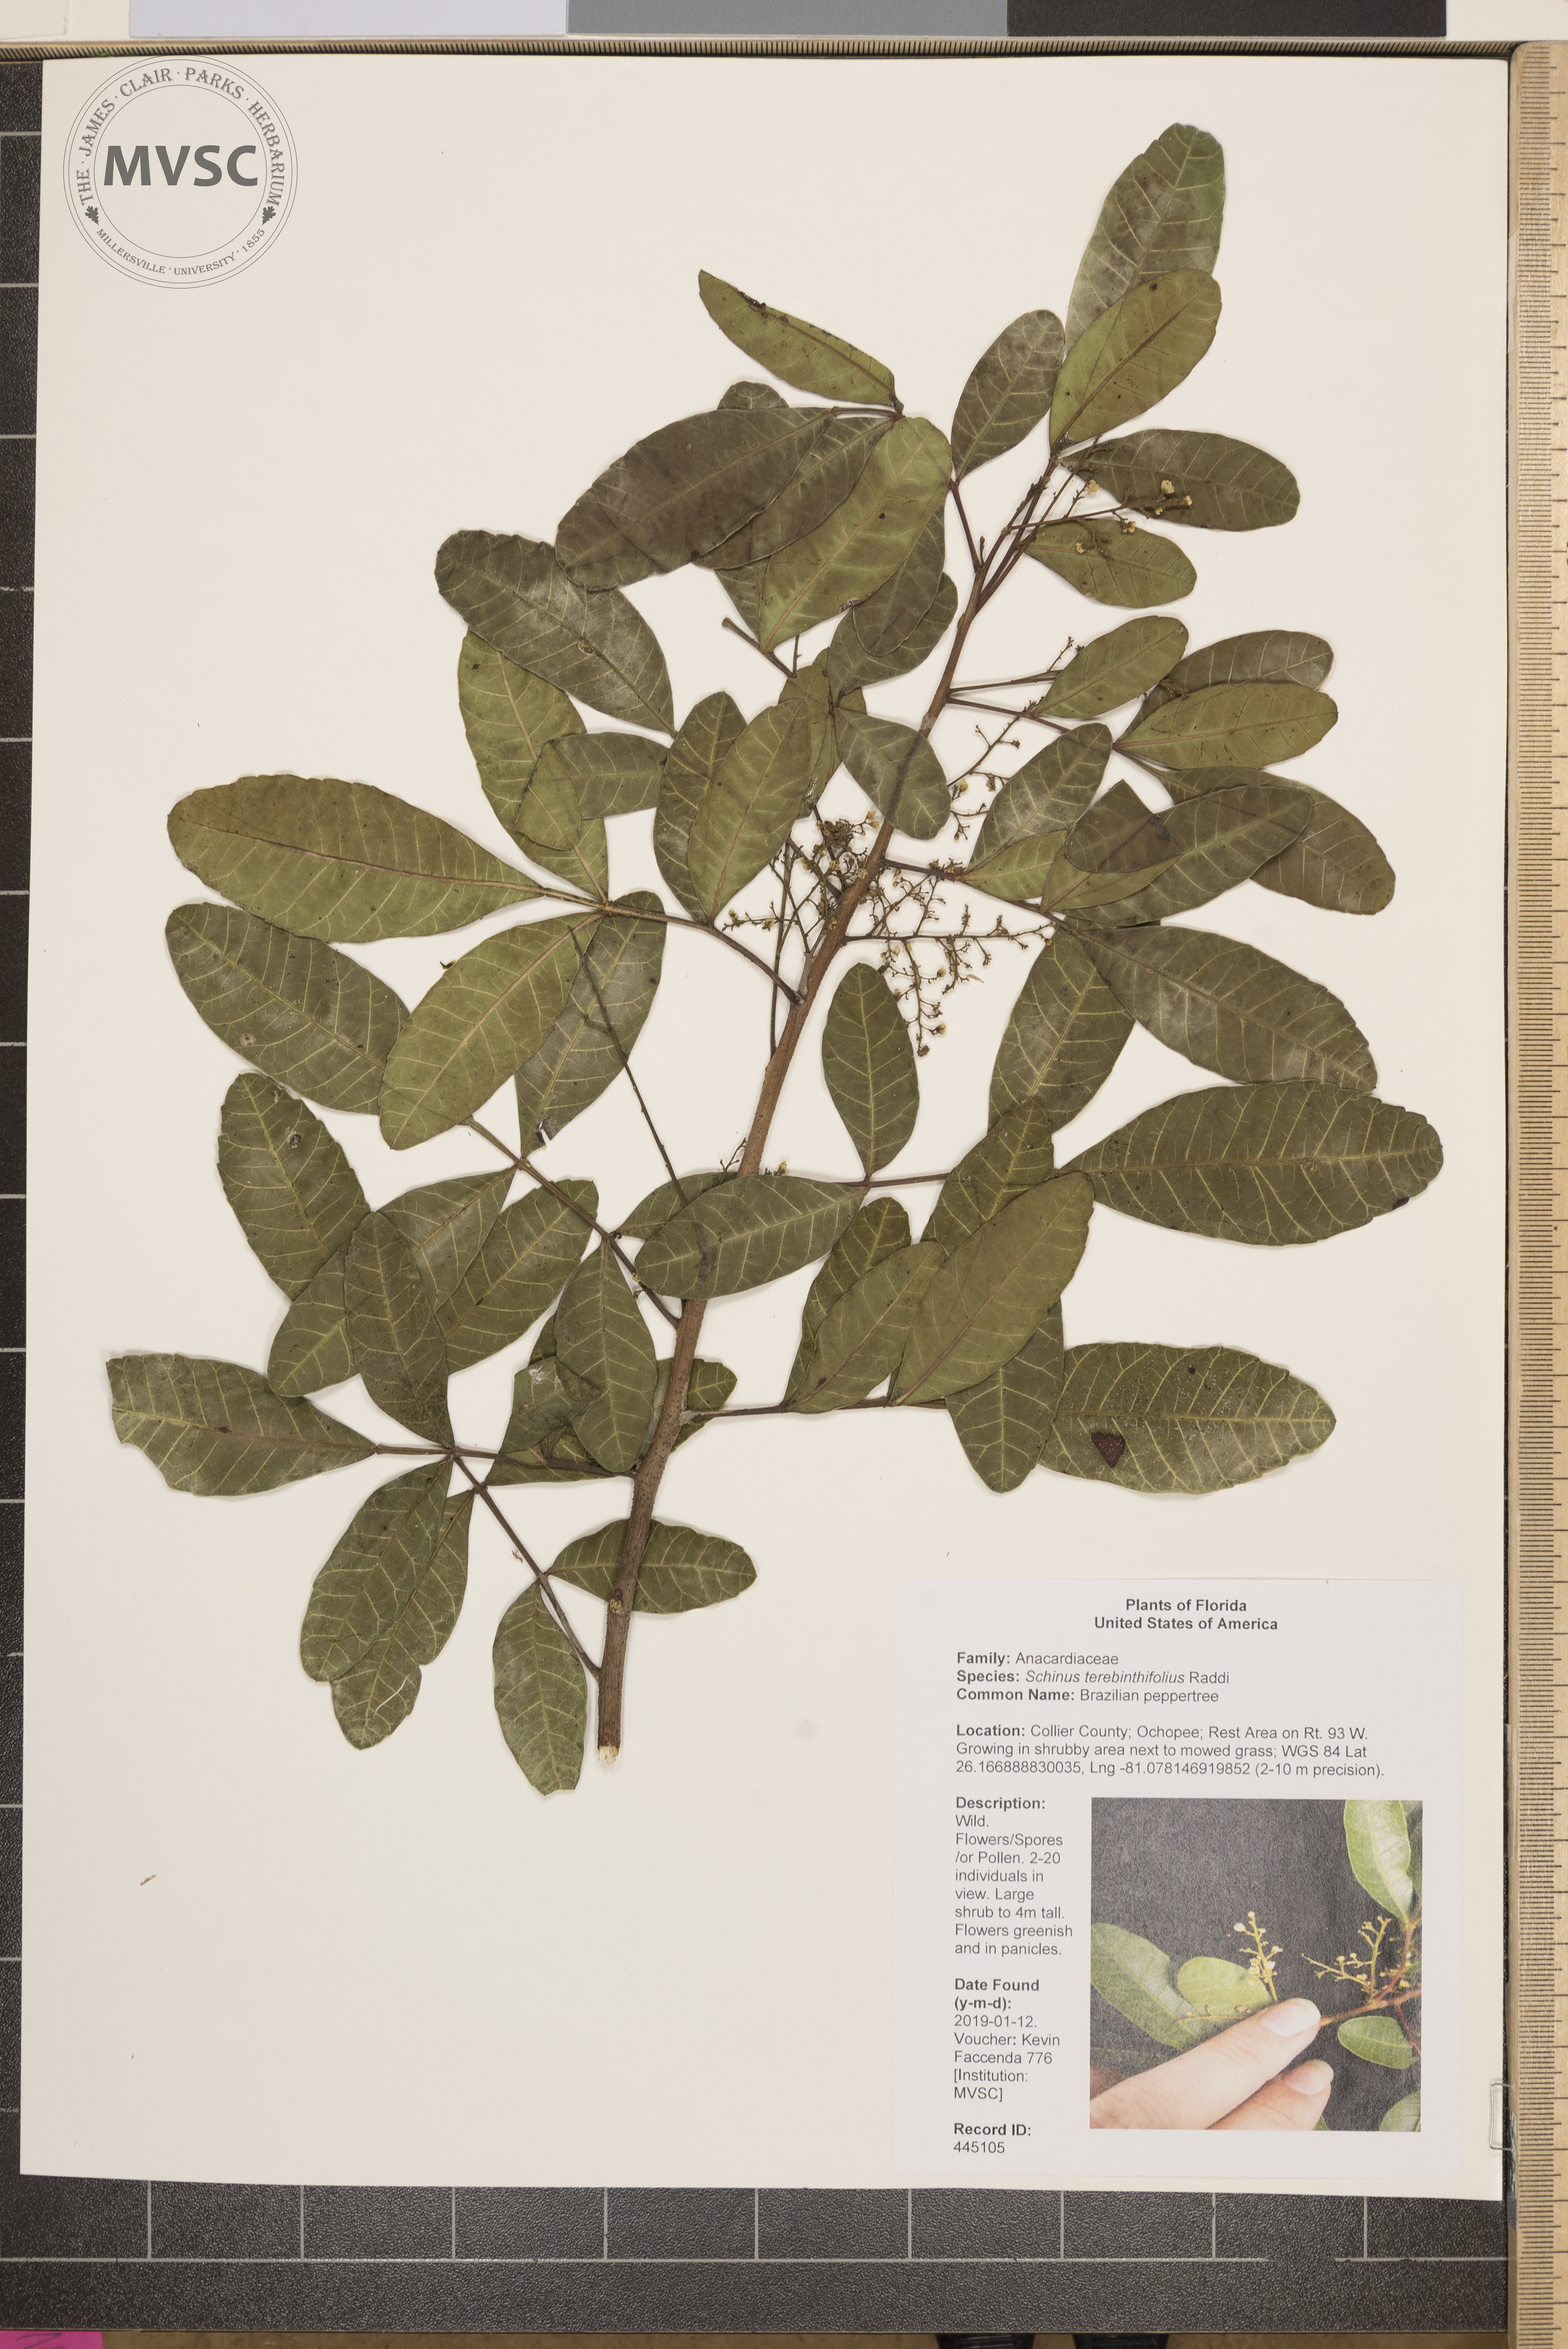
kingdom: Plantae
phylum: Tracheophyta
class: Magnoliopsida
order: Sapindales
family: Anacardiaceae
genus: Schinus
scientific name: Schinus terebinthifolia
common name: Brazilian peppertree
